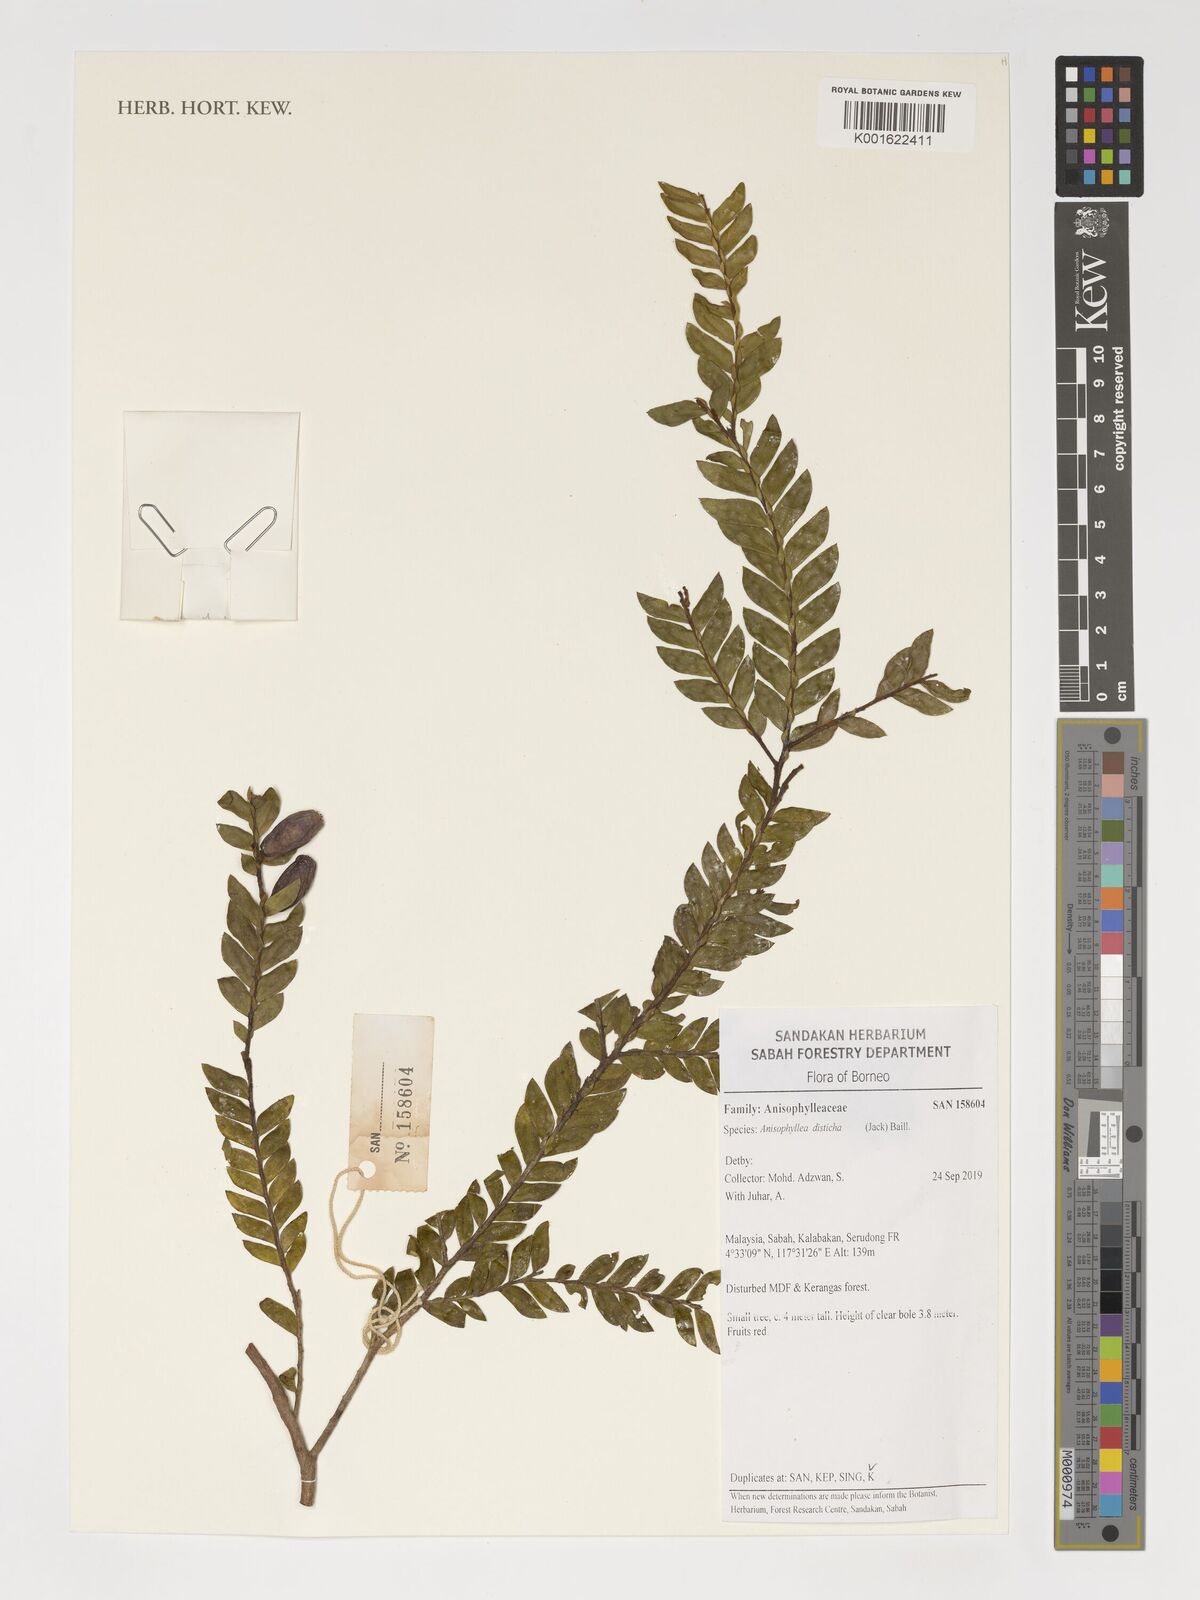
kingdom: Plantae
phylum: Tracheophyta
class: Magnoliopsida
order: Cucurbitales
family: Anisophylleaceae
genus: Anisophyllea
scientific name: Anisophyllea disticha
